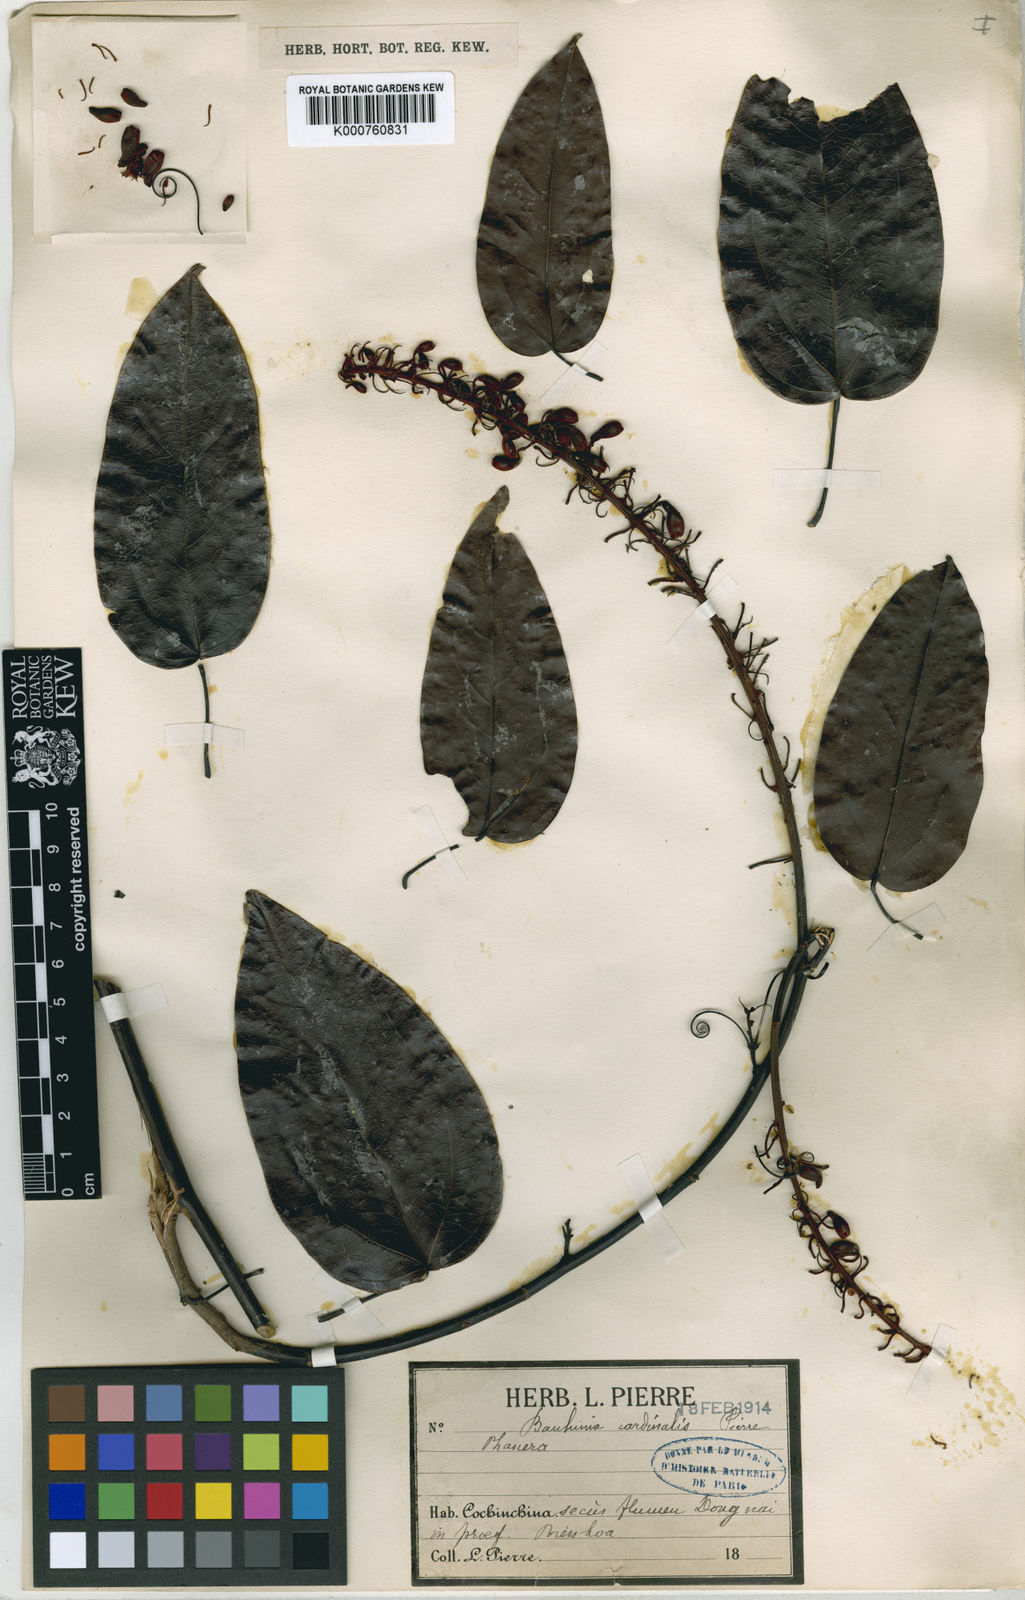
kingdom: Plantae
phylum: Tracheophyta
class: Magnoliopsida
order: Fabales
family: Fabaceae
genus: Phanera
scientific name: Phanera cardinalis
